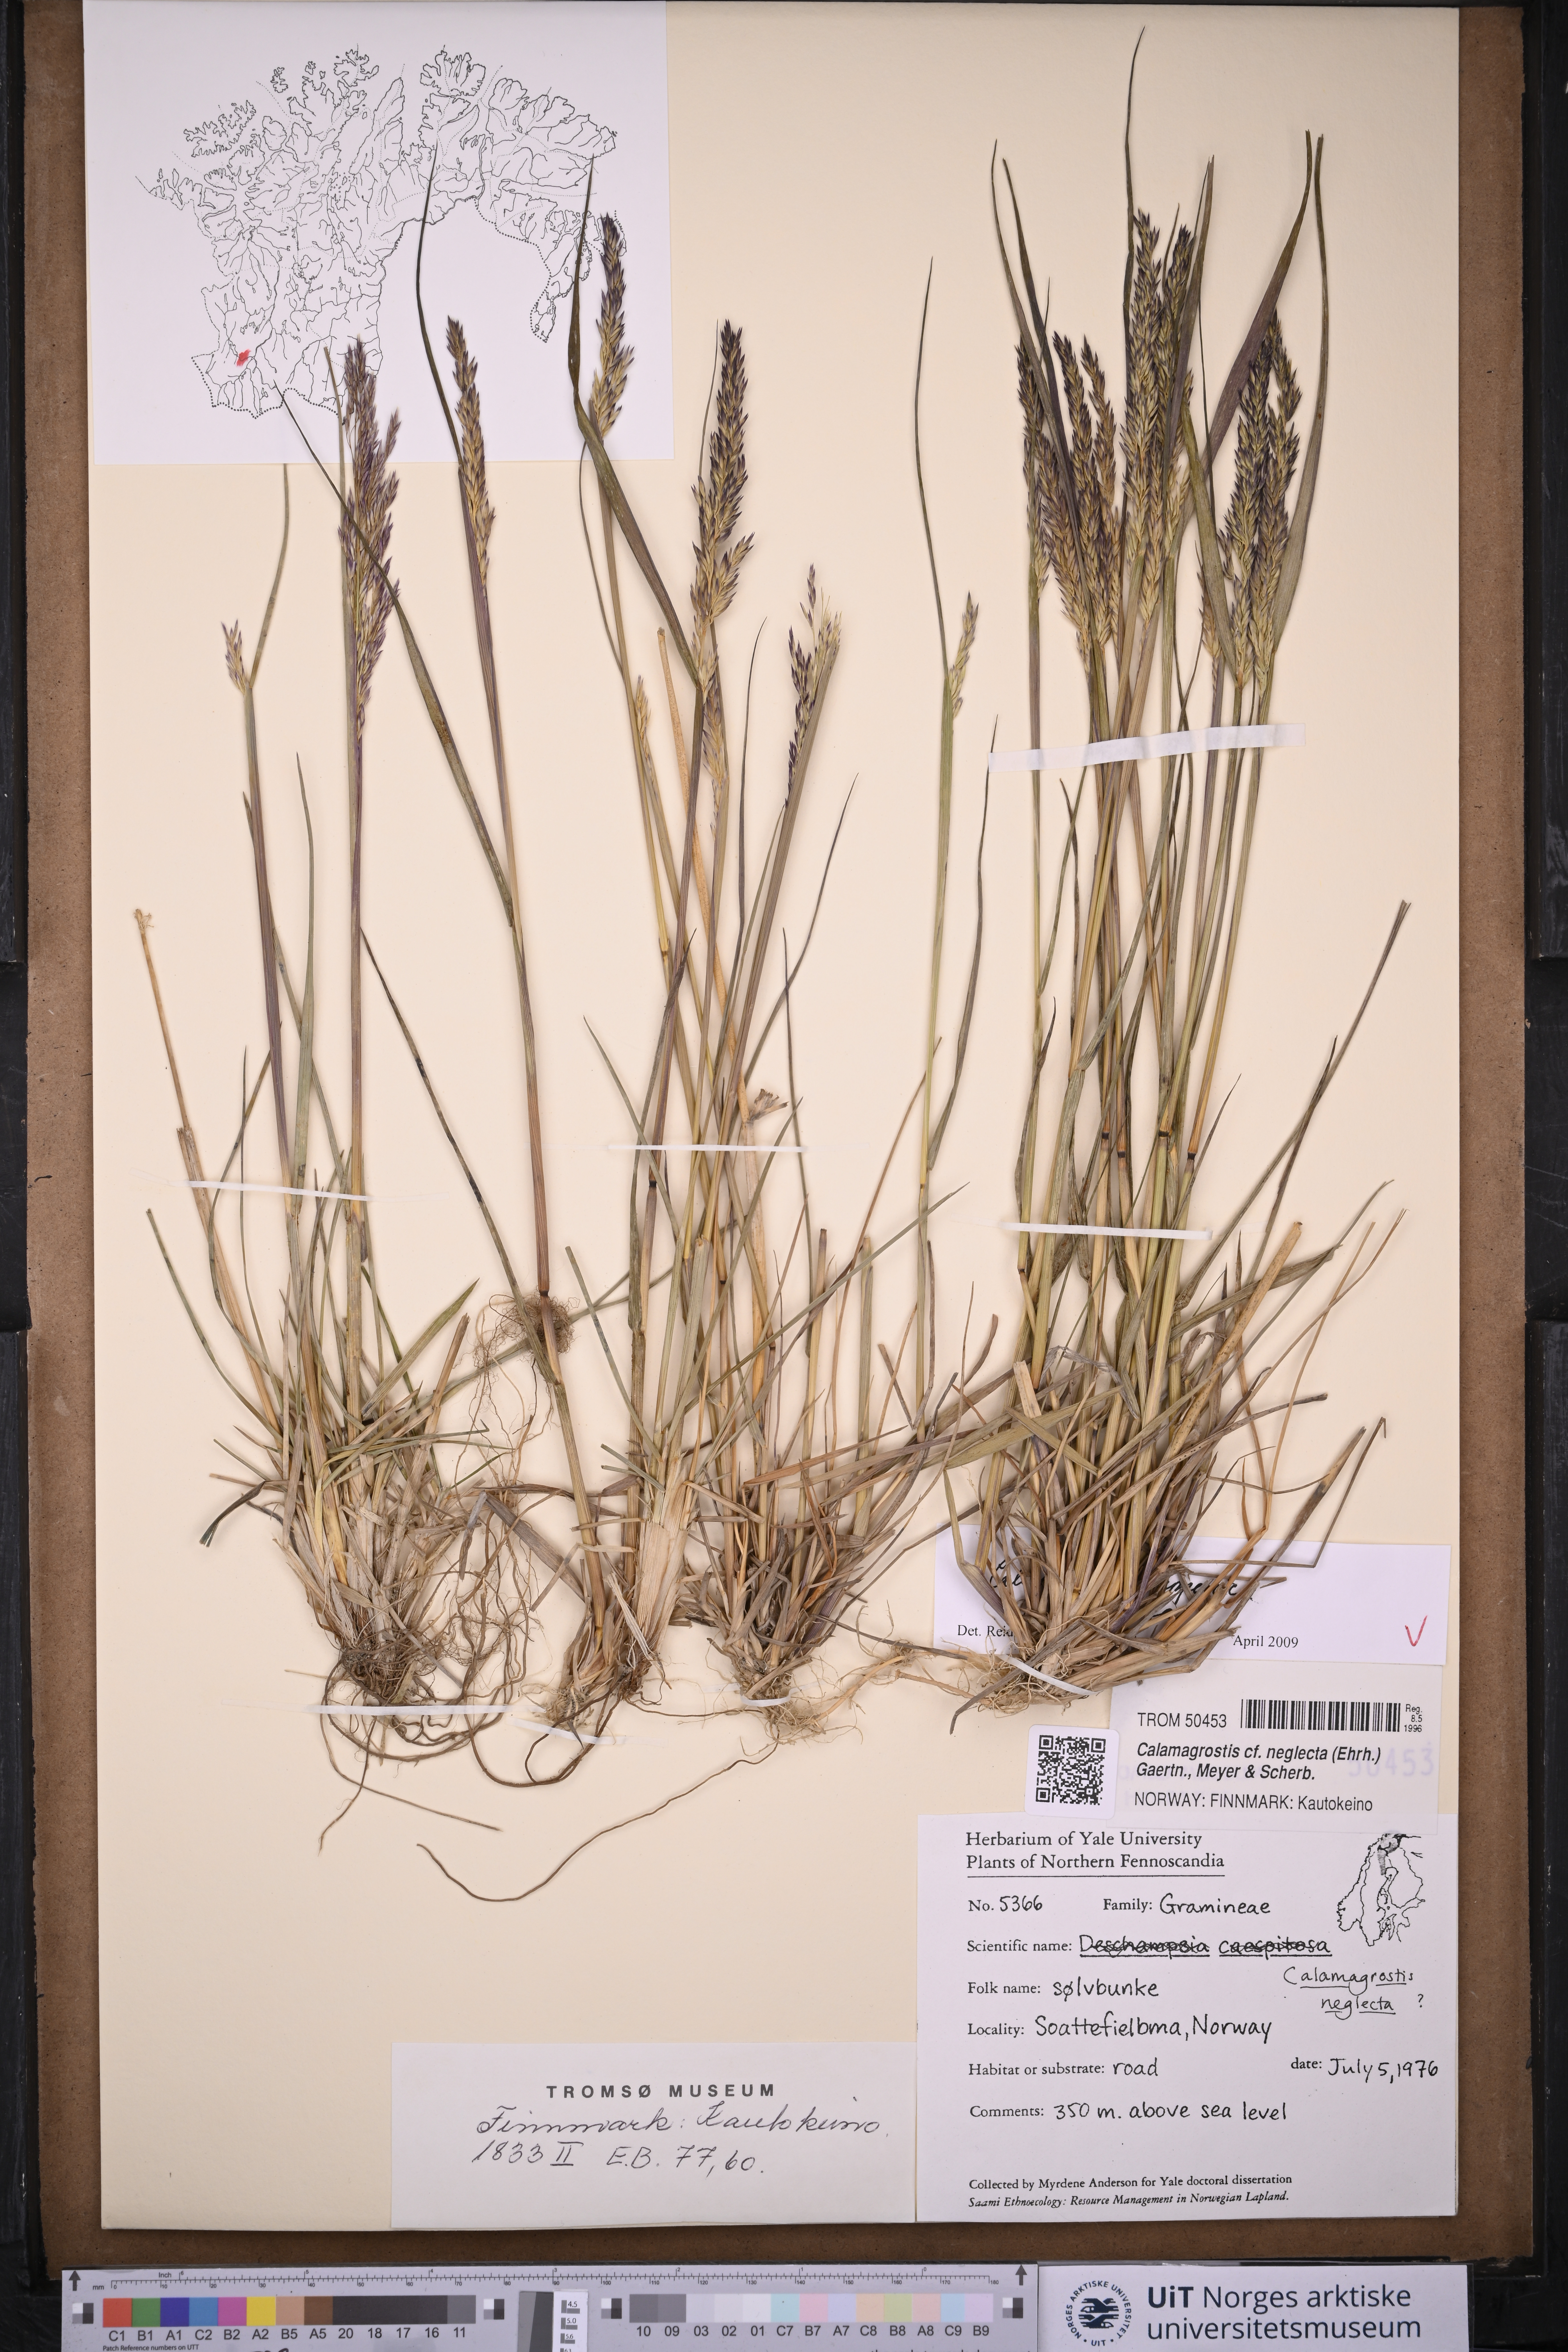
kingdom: Plantae
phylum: Tracheophyta
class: Liliopsida
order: Poales
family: Poaceae
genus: Calamagrostis
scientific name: Calamagrostis lapponica
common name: Lapland reedgrass
